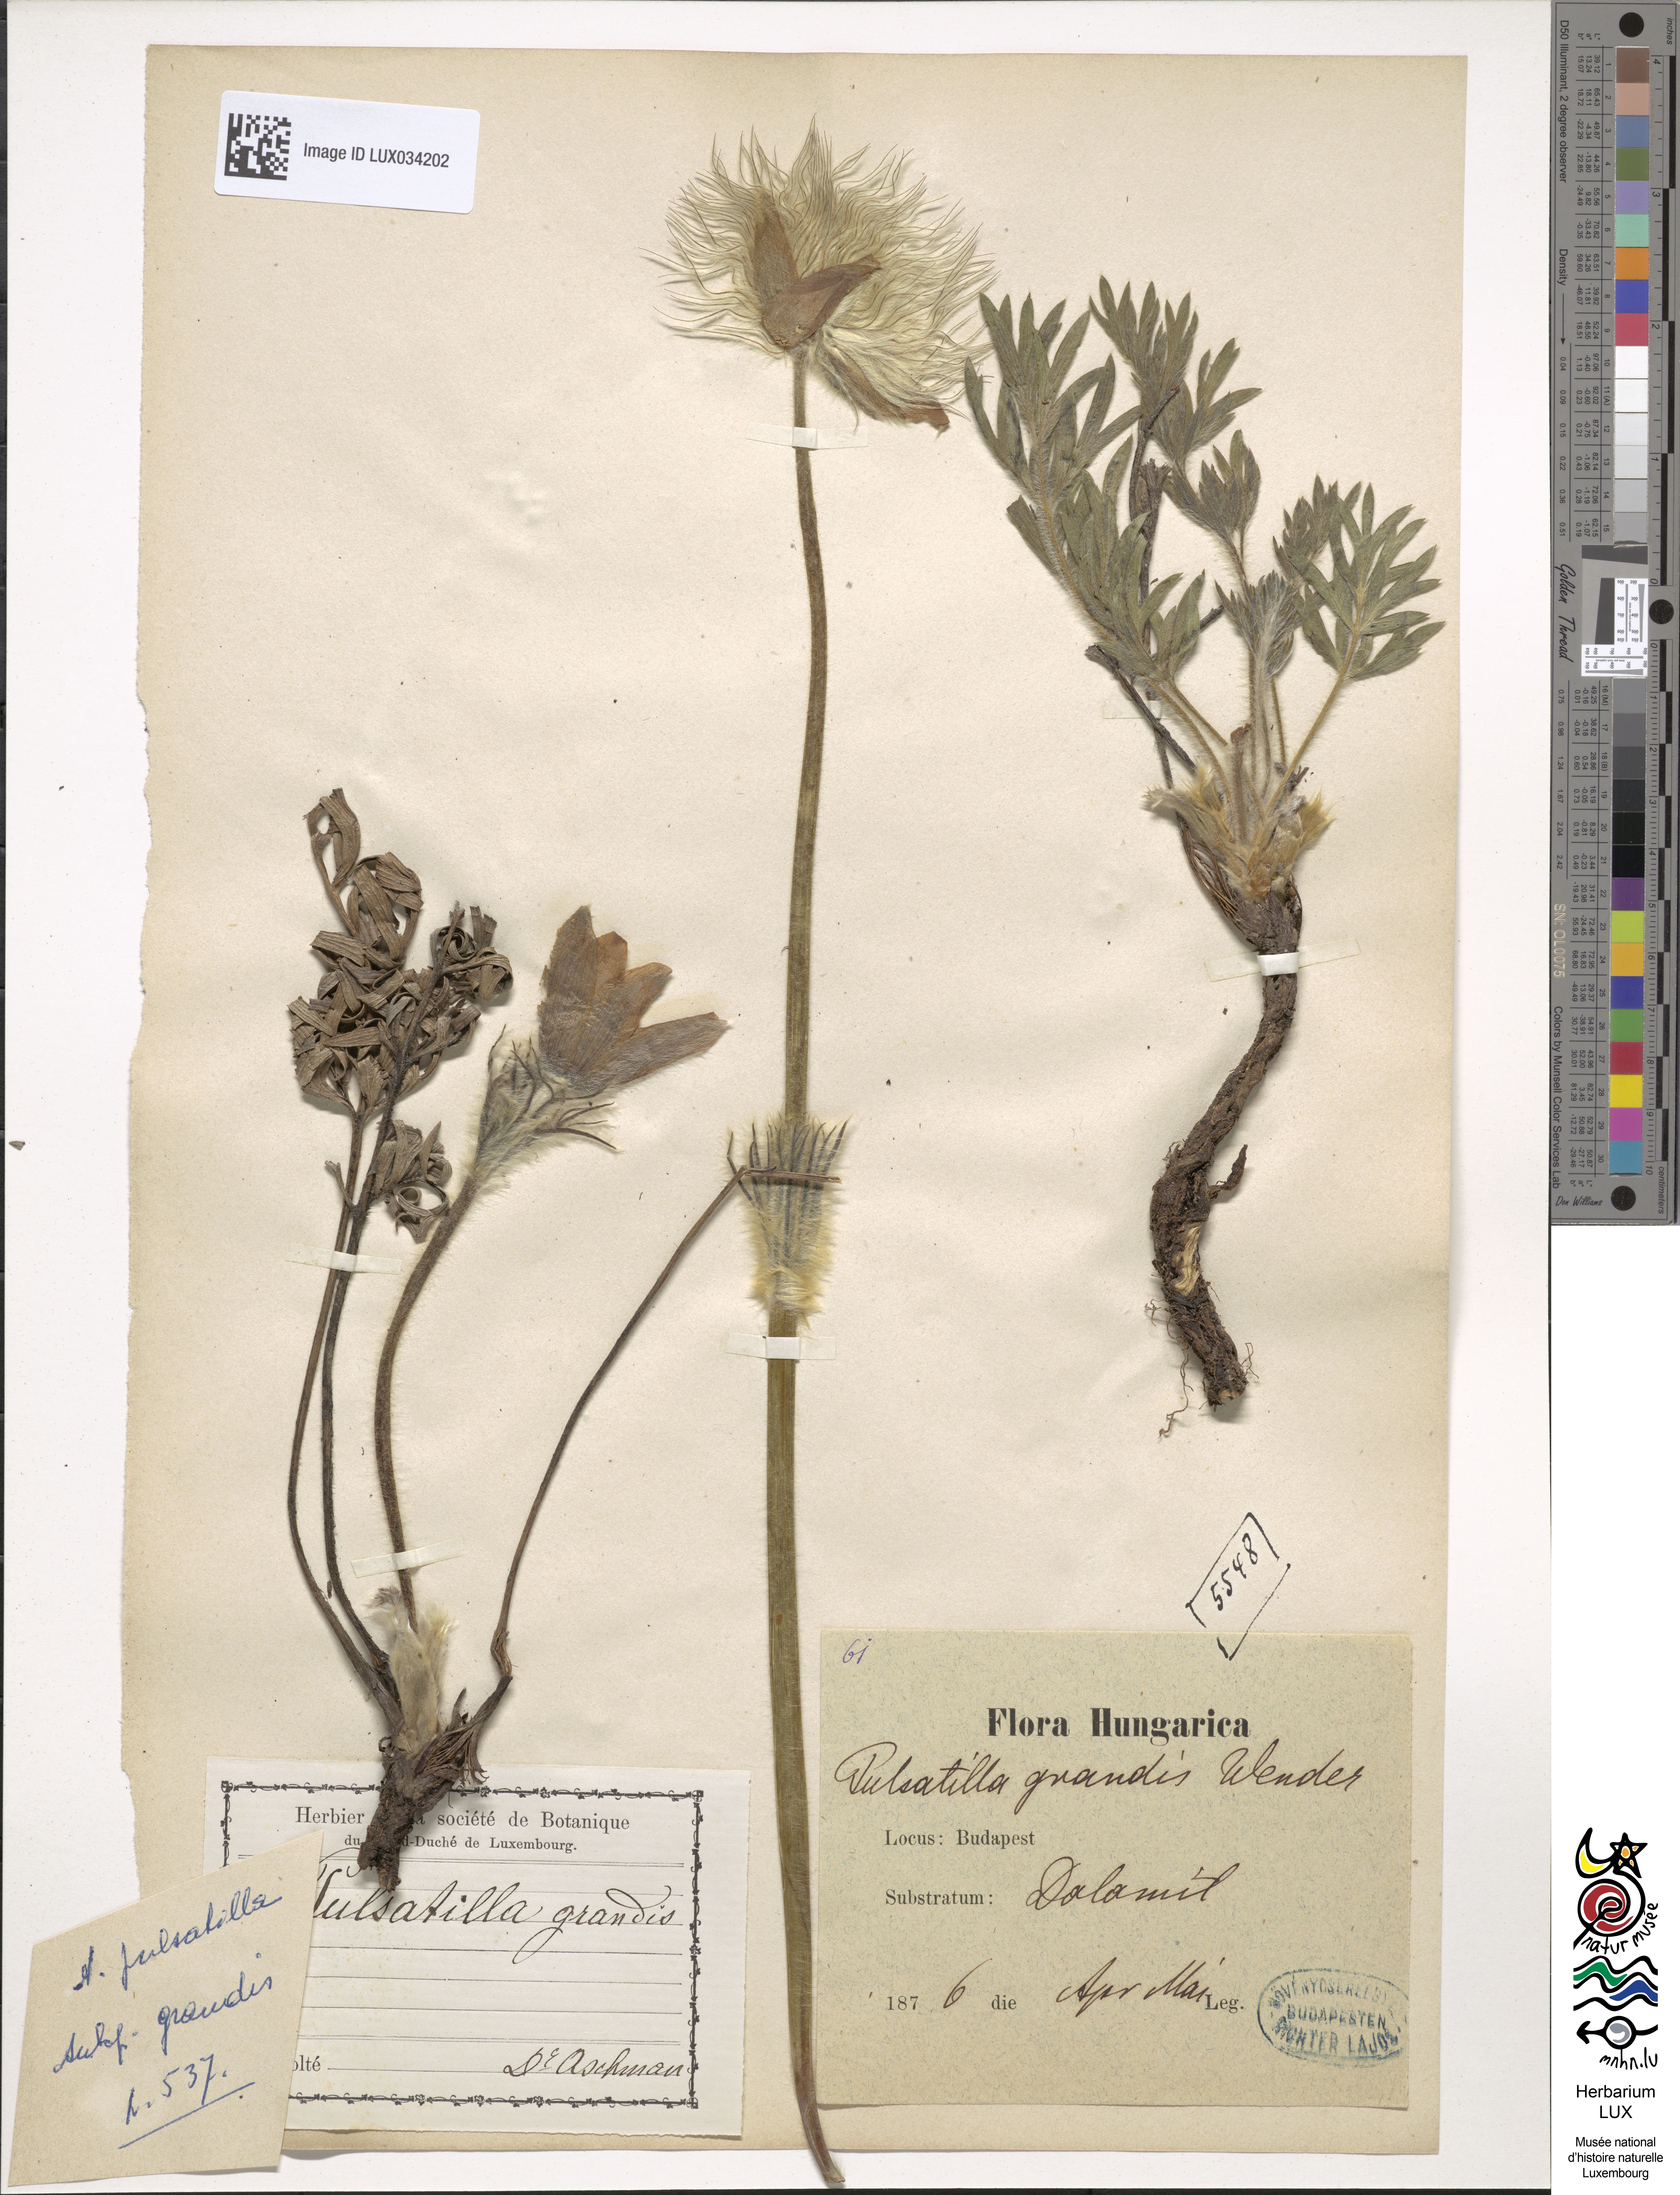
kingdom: Plantae
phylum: Tracheophyta
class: Magnoliopsida
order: Ranunculales
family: Ranunculaceae
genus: Pulsatilla
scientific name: Pulsatilla grandis
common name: Greater pasque flower
